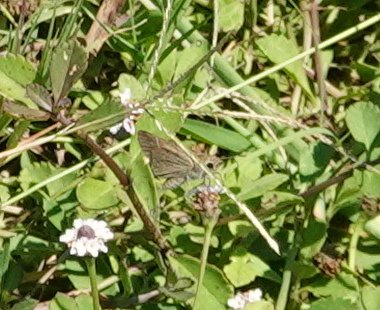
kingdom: Animalia
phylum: Arthropoda
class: Insecta
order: Lepidoptera
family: Hesperiidae
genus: Lerodea
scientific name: Lerodea eufala
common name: Eufala Skipper
